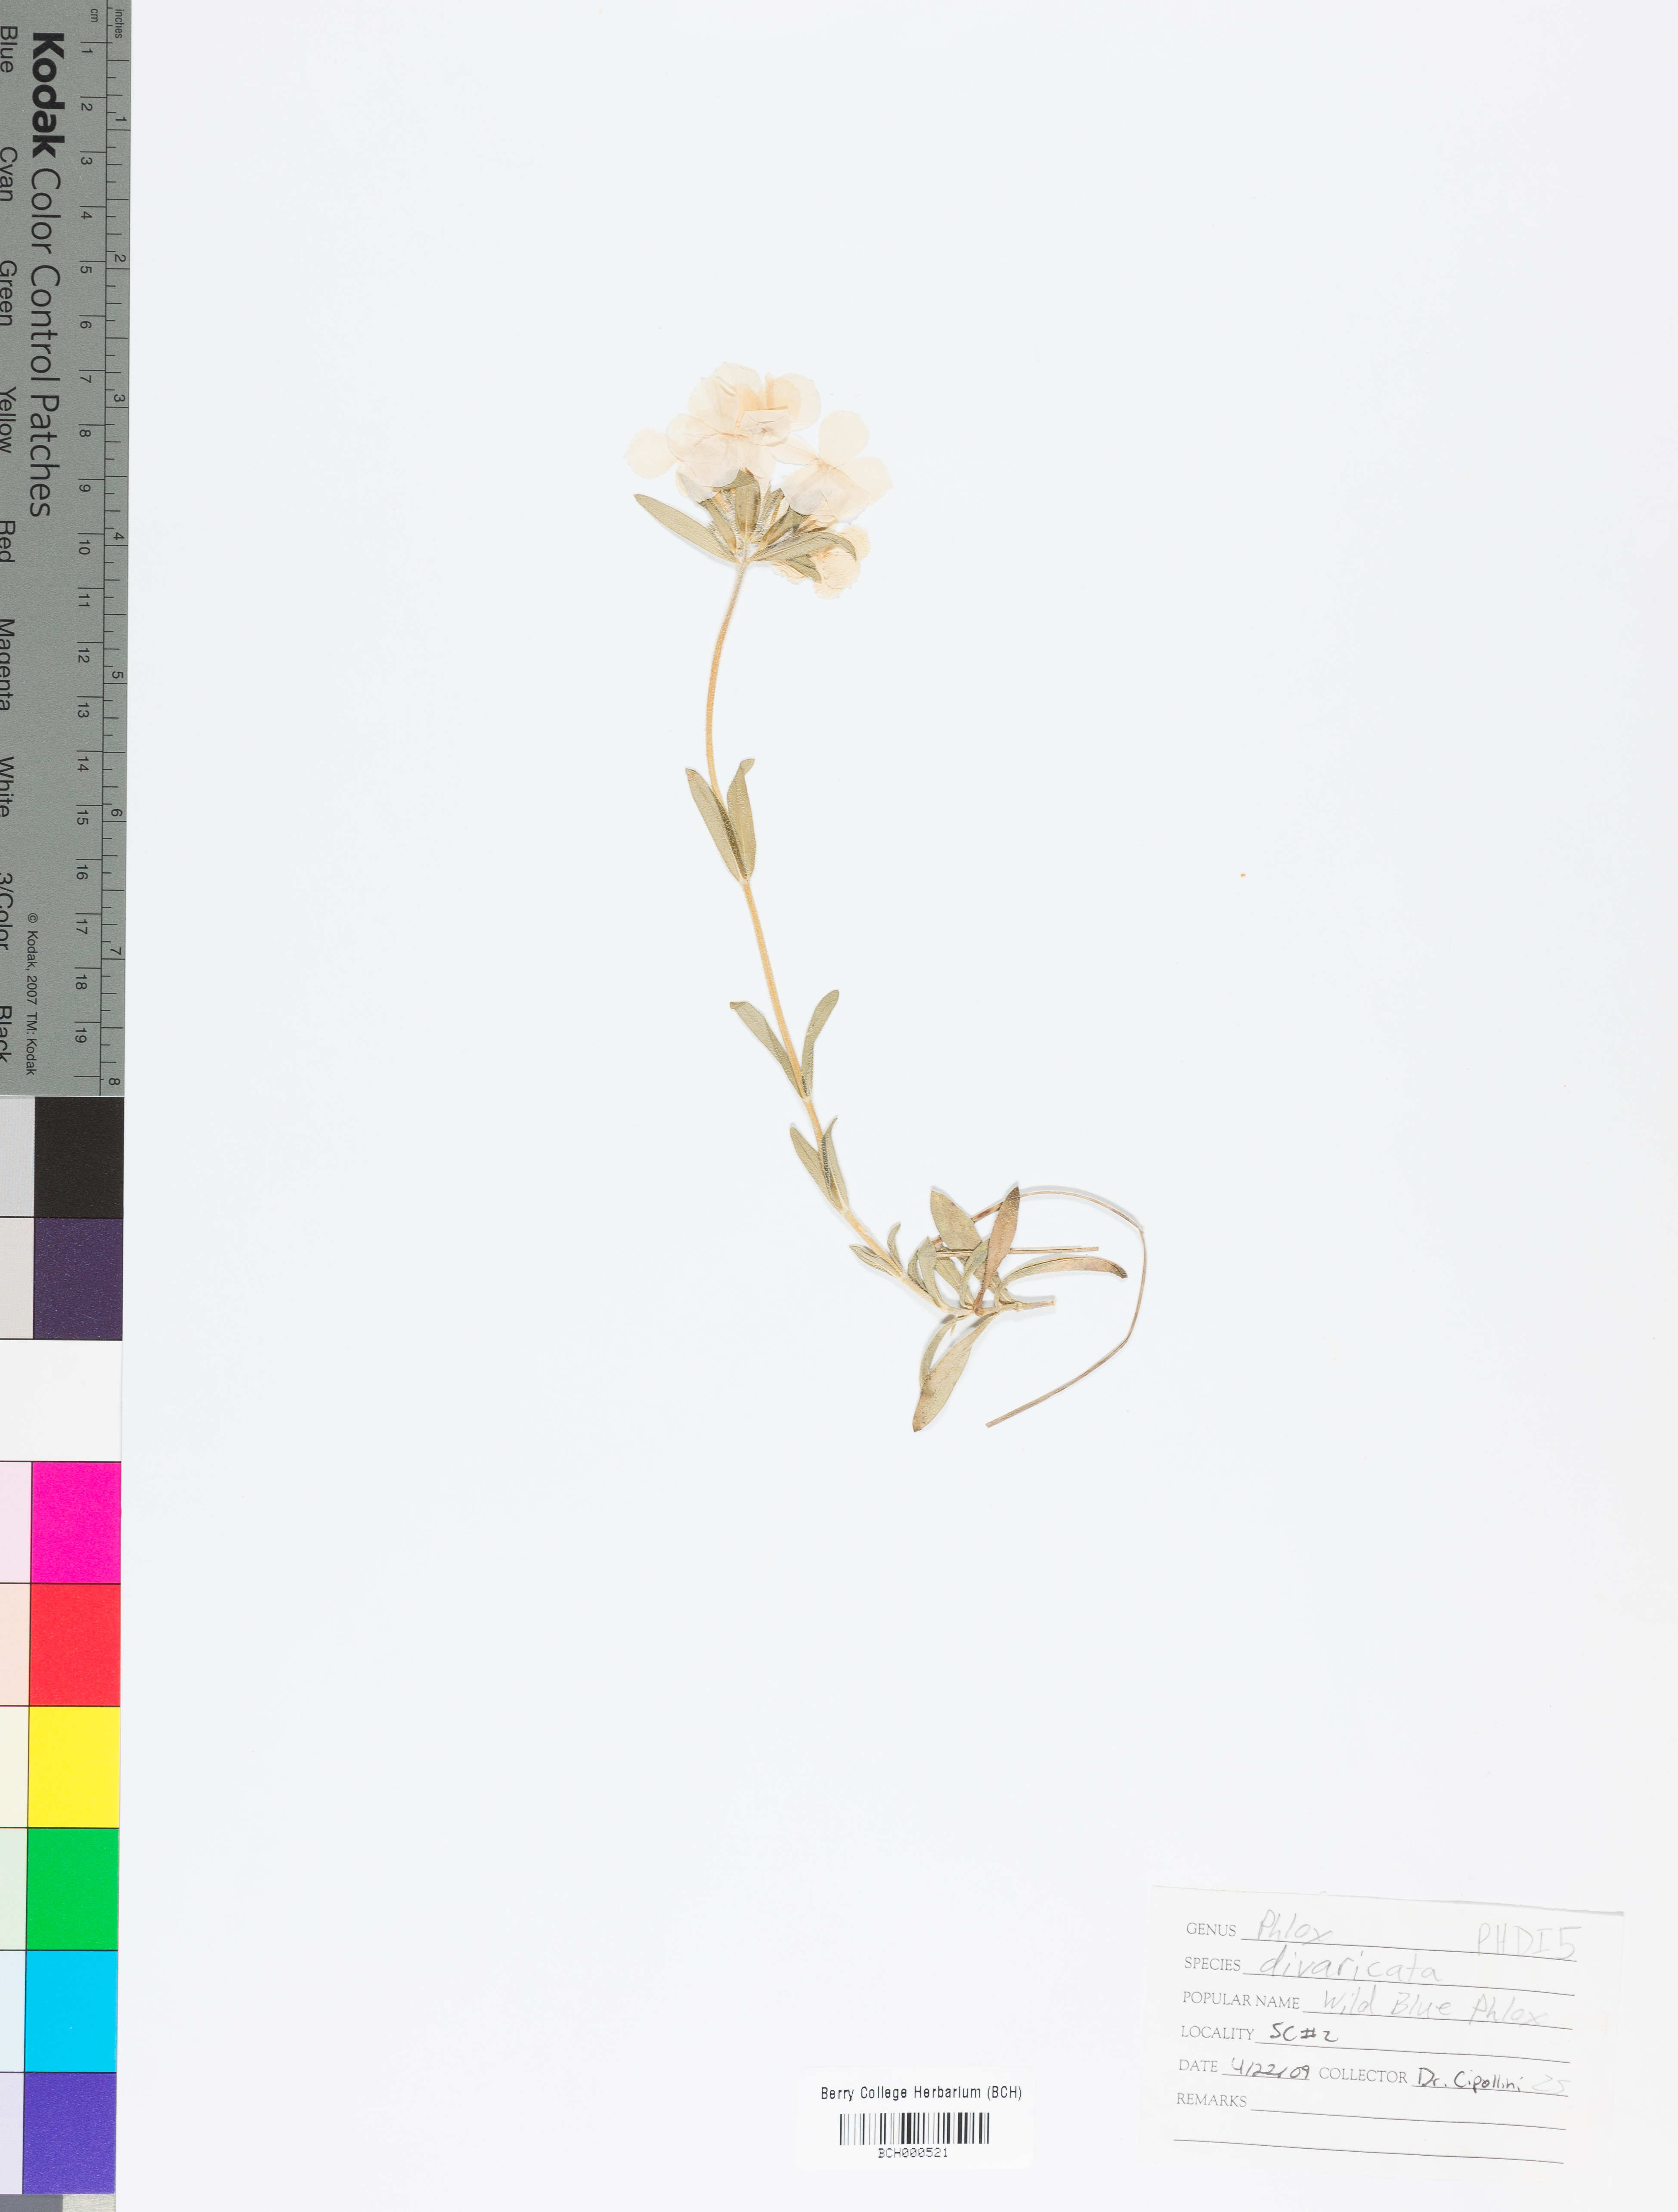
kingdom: Plantae
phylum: Tracheophyta
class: Magnoliopsida
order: Ericales
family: Polemoniaceae
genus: Phlox
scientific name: Phlox divaricata
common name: Blue phlox
